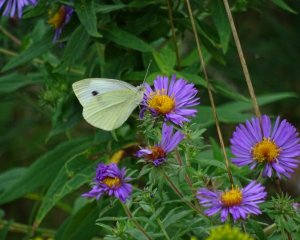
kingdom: Animalia
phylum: Arthropoda
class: Insecta
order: Lepidoptera
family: Pieridae
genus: Pieris
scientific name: Pieris rapae
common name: Cabbage White
